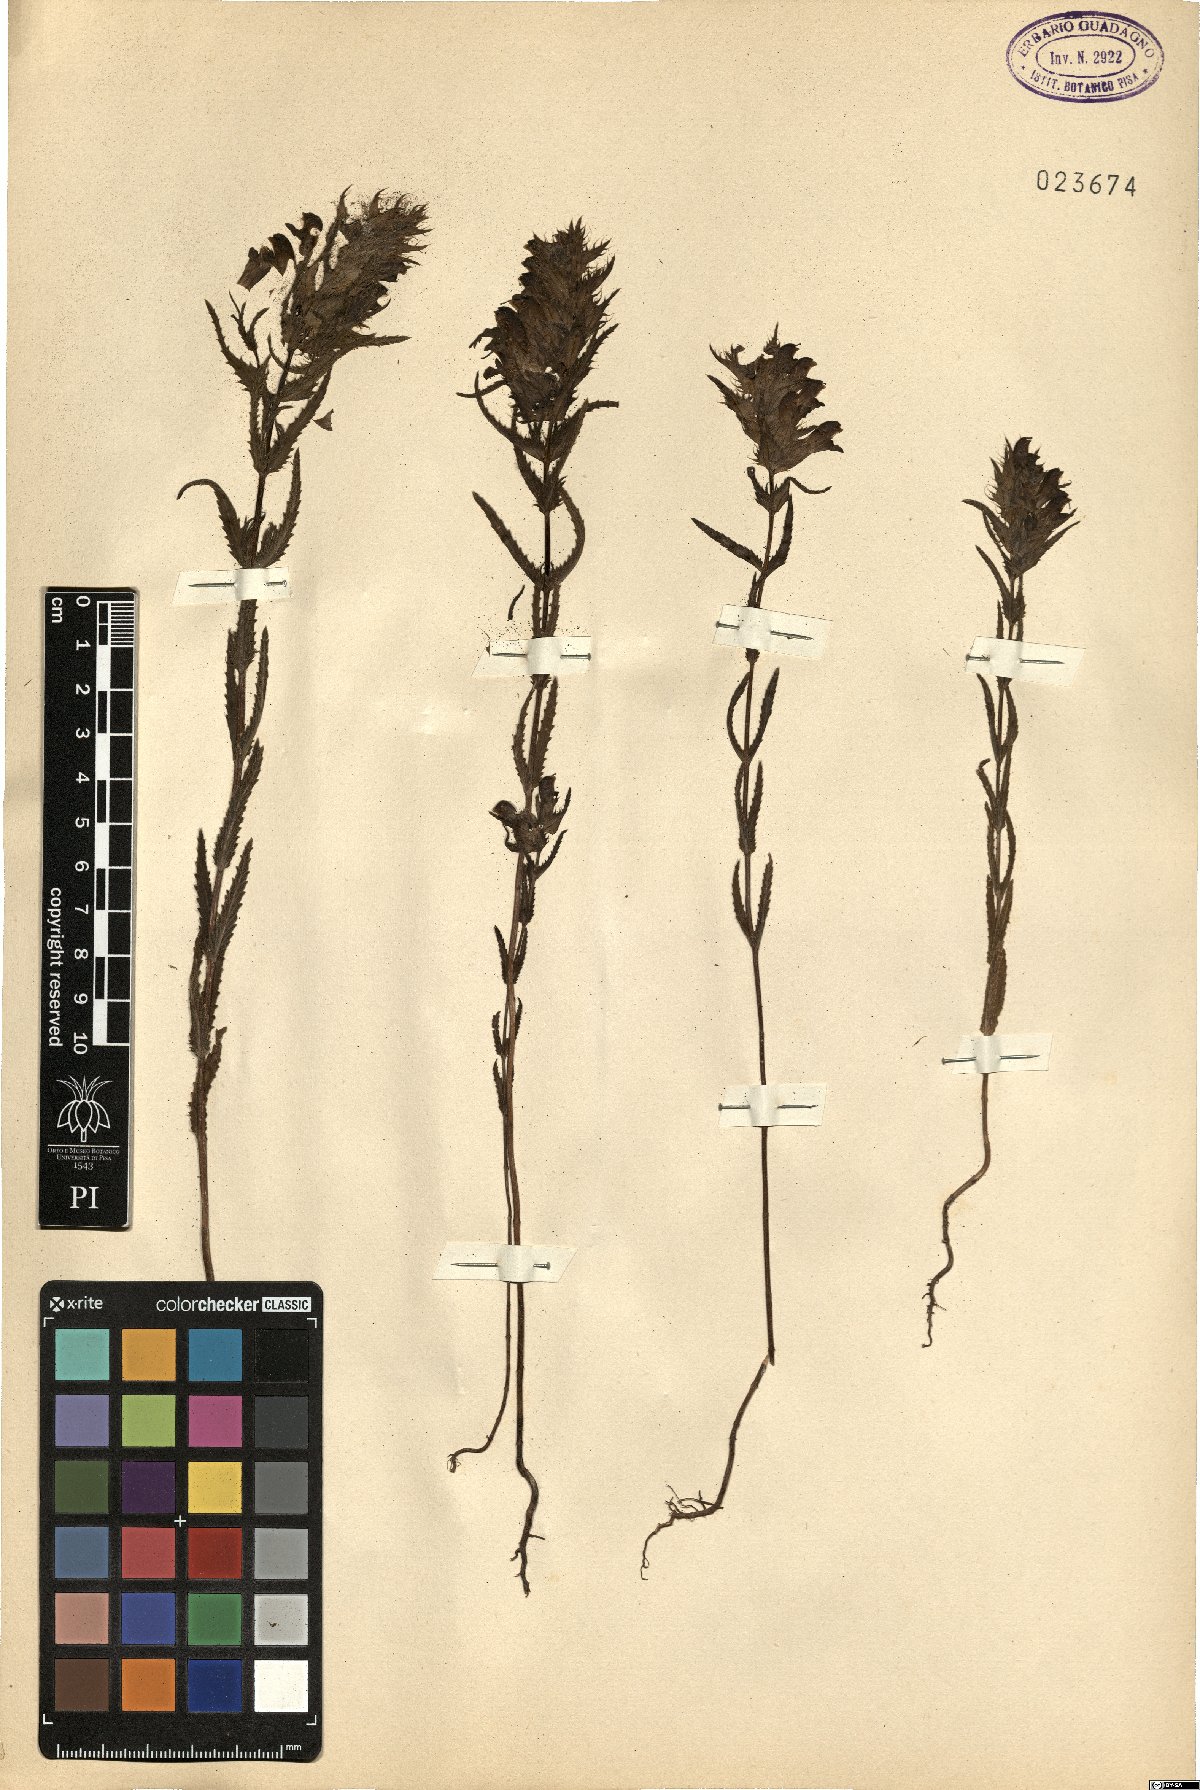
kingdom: Plantae
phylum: Tracheophyta
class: Magnoliopsida
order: Lamiales
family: Orobanchaceae
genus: Rhinanthus
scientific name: Rhinanthus pampaninii
